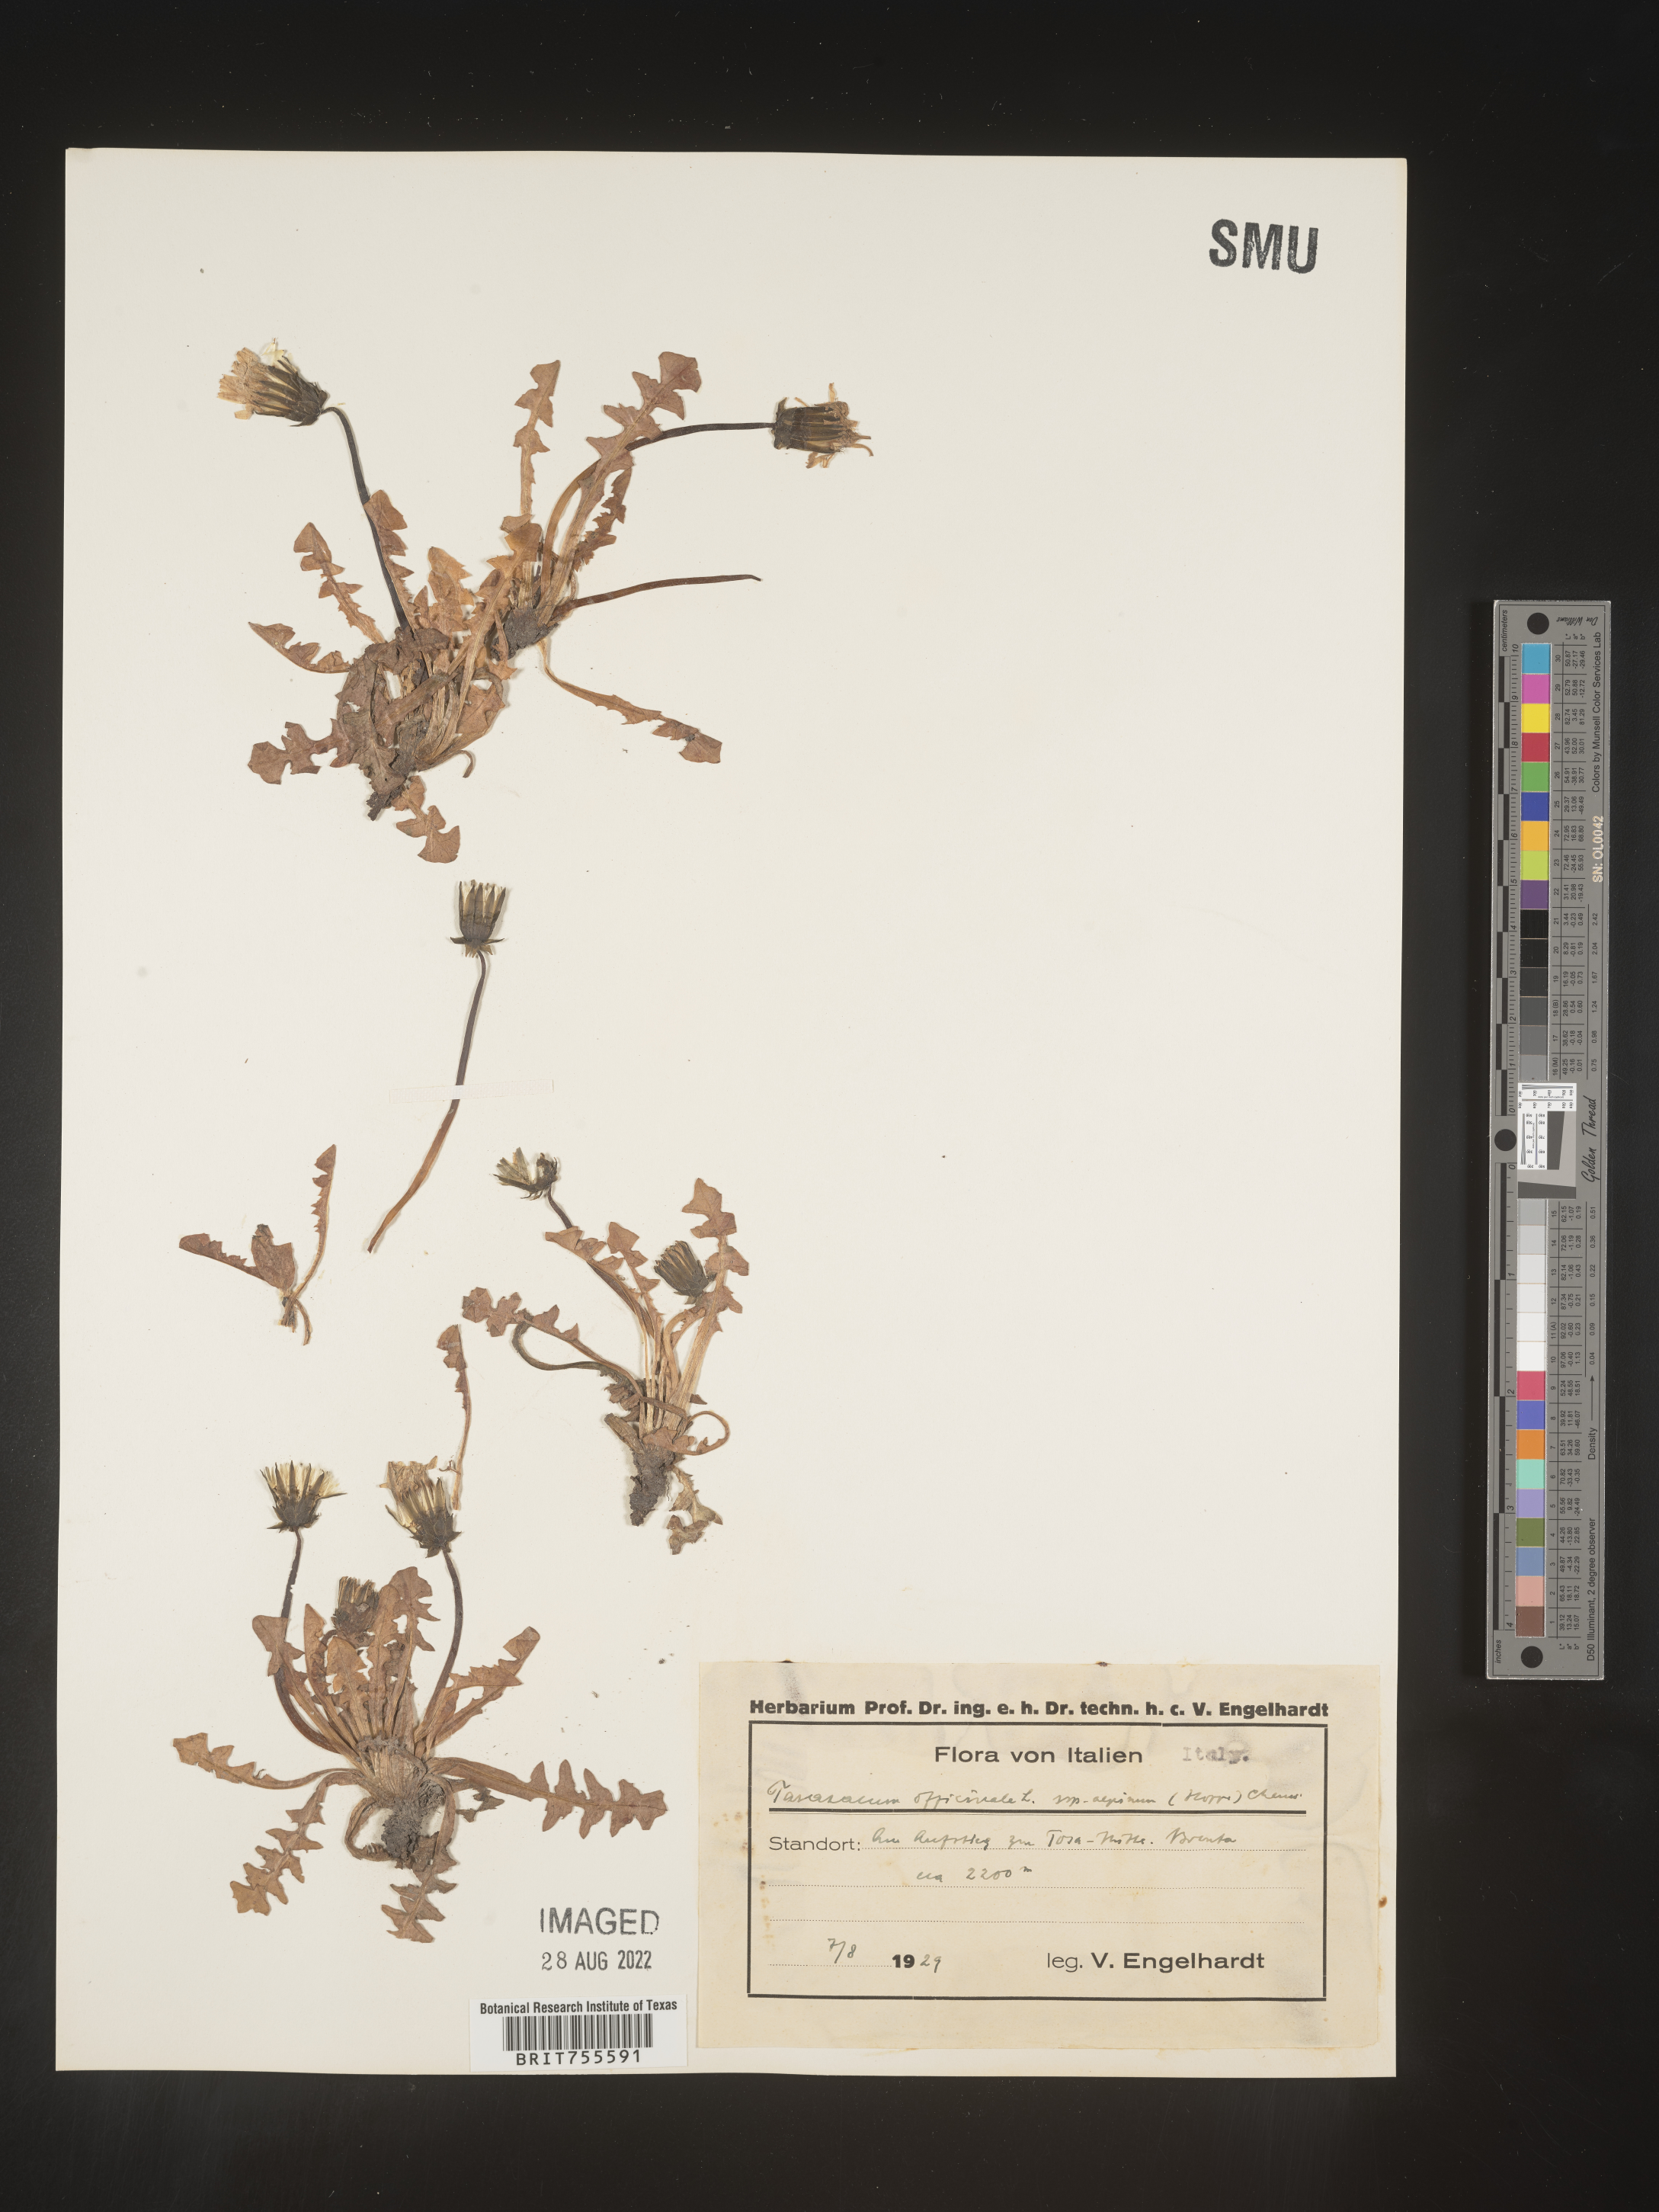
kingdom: Plantae
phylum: Tracheophyta
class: Magnoliopsida
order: Asterales
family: Asteraceae
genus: Taraxacum
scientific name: Taraxacum
